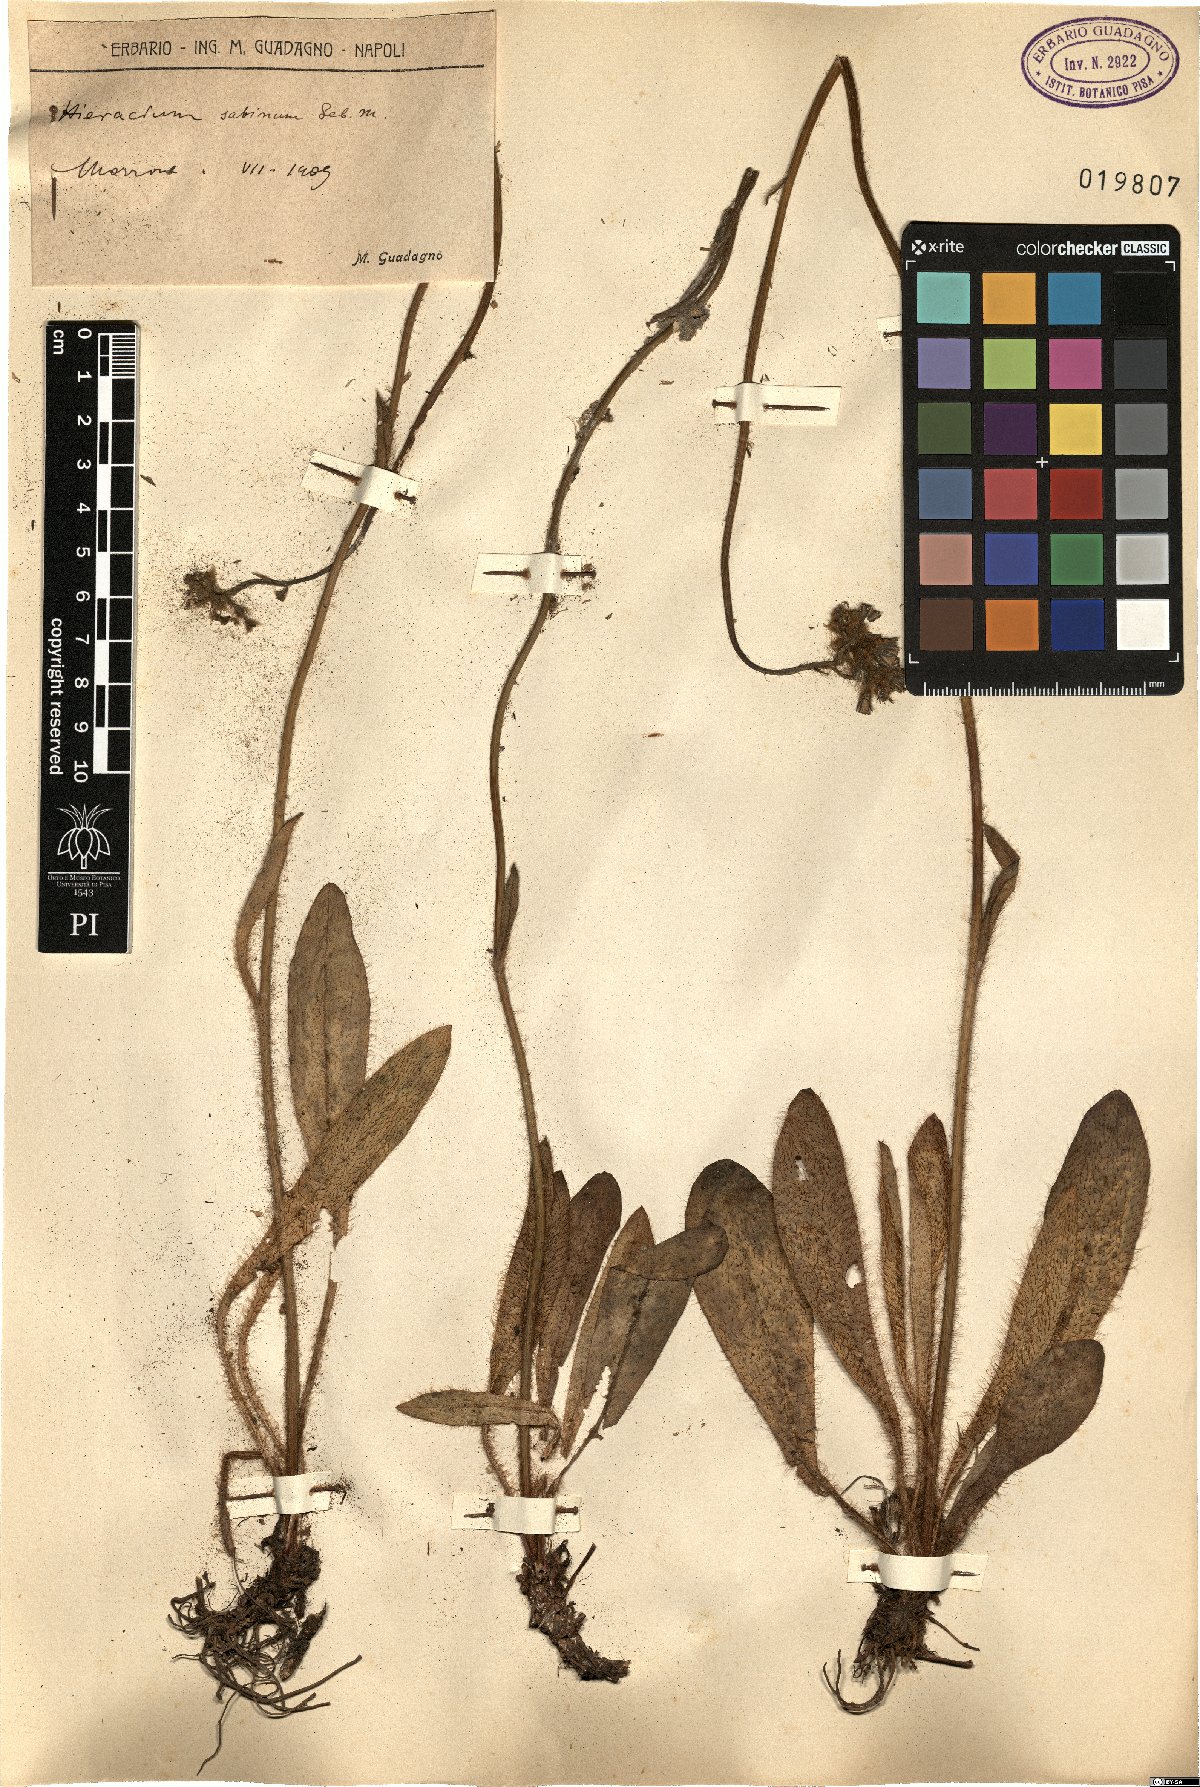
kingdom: Plantae
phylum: Tracheophyta
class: Magnoliopsida
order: Asterales
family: Asteraceae
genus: Pilosella
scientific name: Pilosella cymosa
